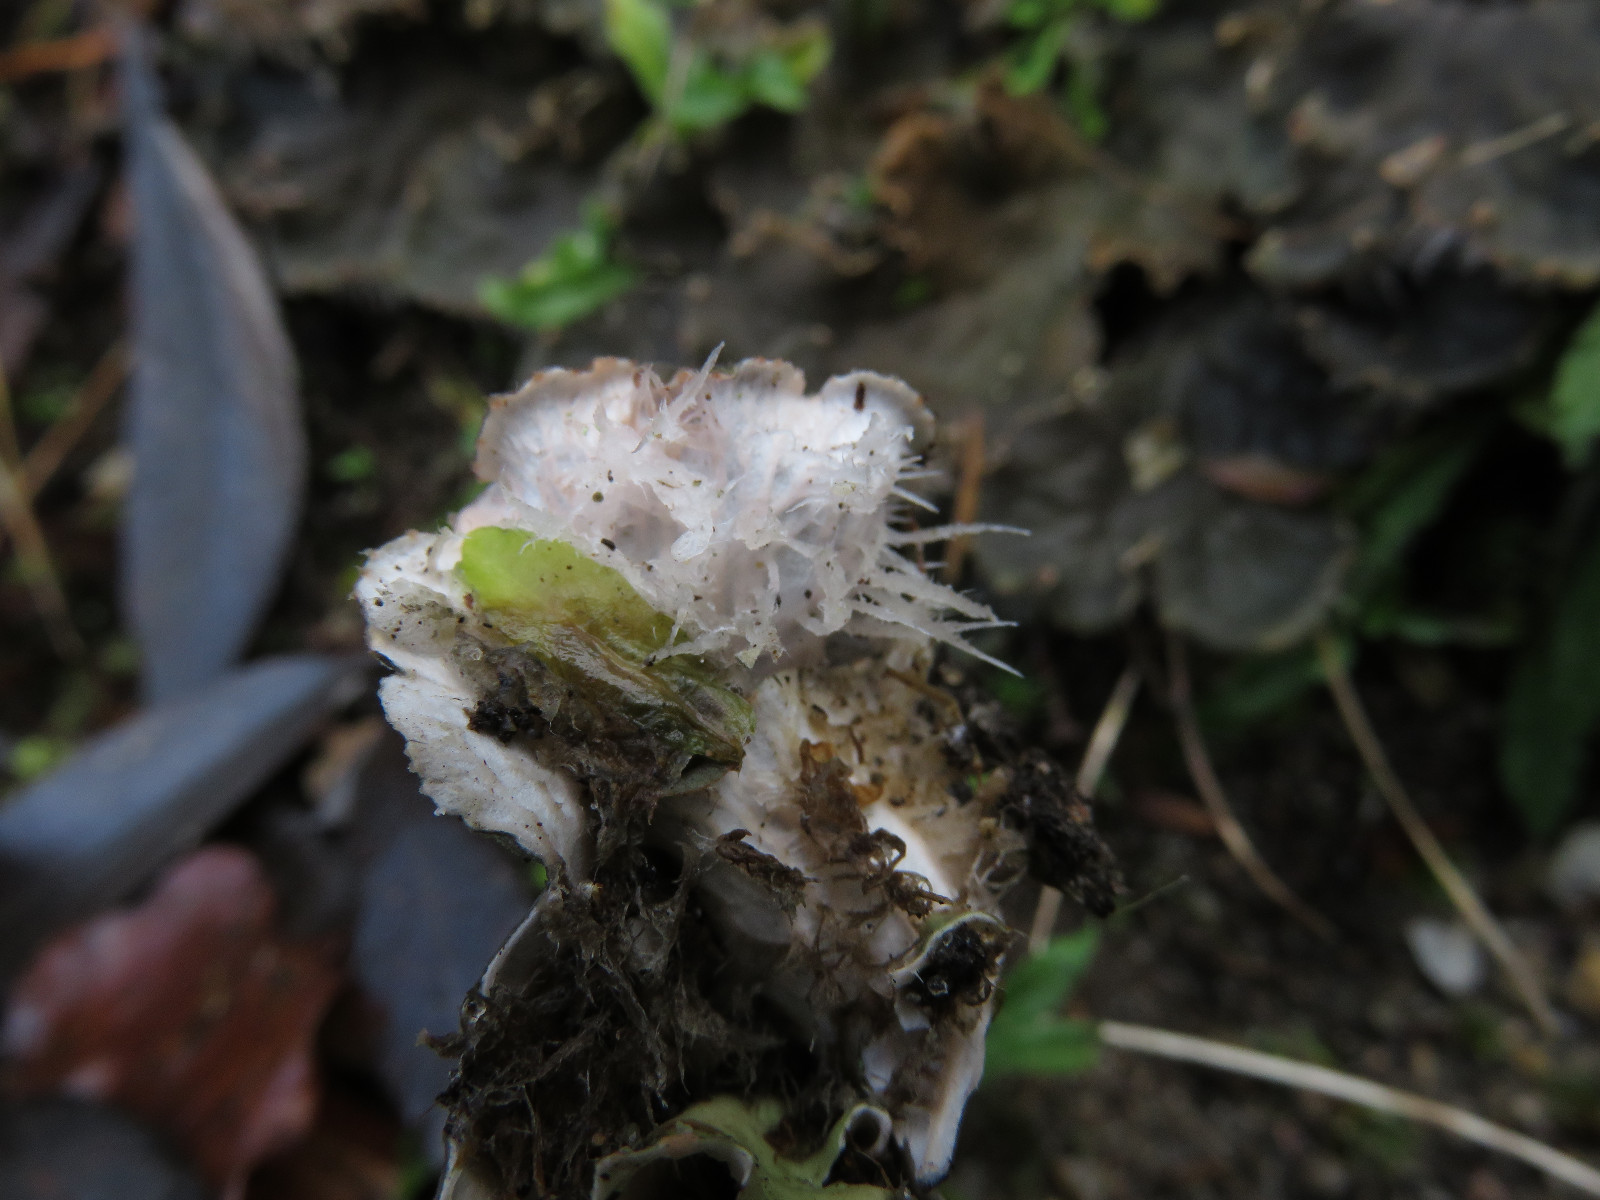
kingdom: Fungi
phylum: Ascomycota
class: Lecanoromycetes
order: Peltigerales
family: Peltigeraceae
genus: Peltigera
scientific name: Peltigera canina
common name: hunde-skjoldlav
